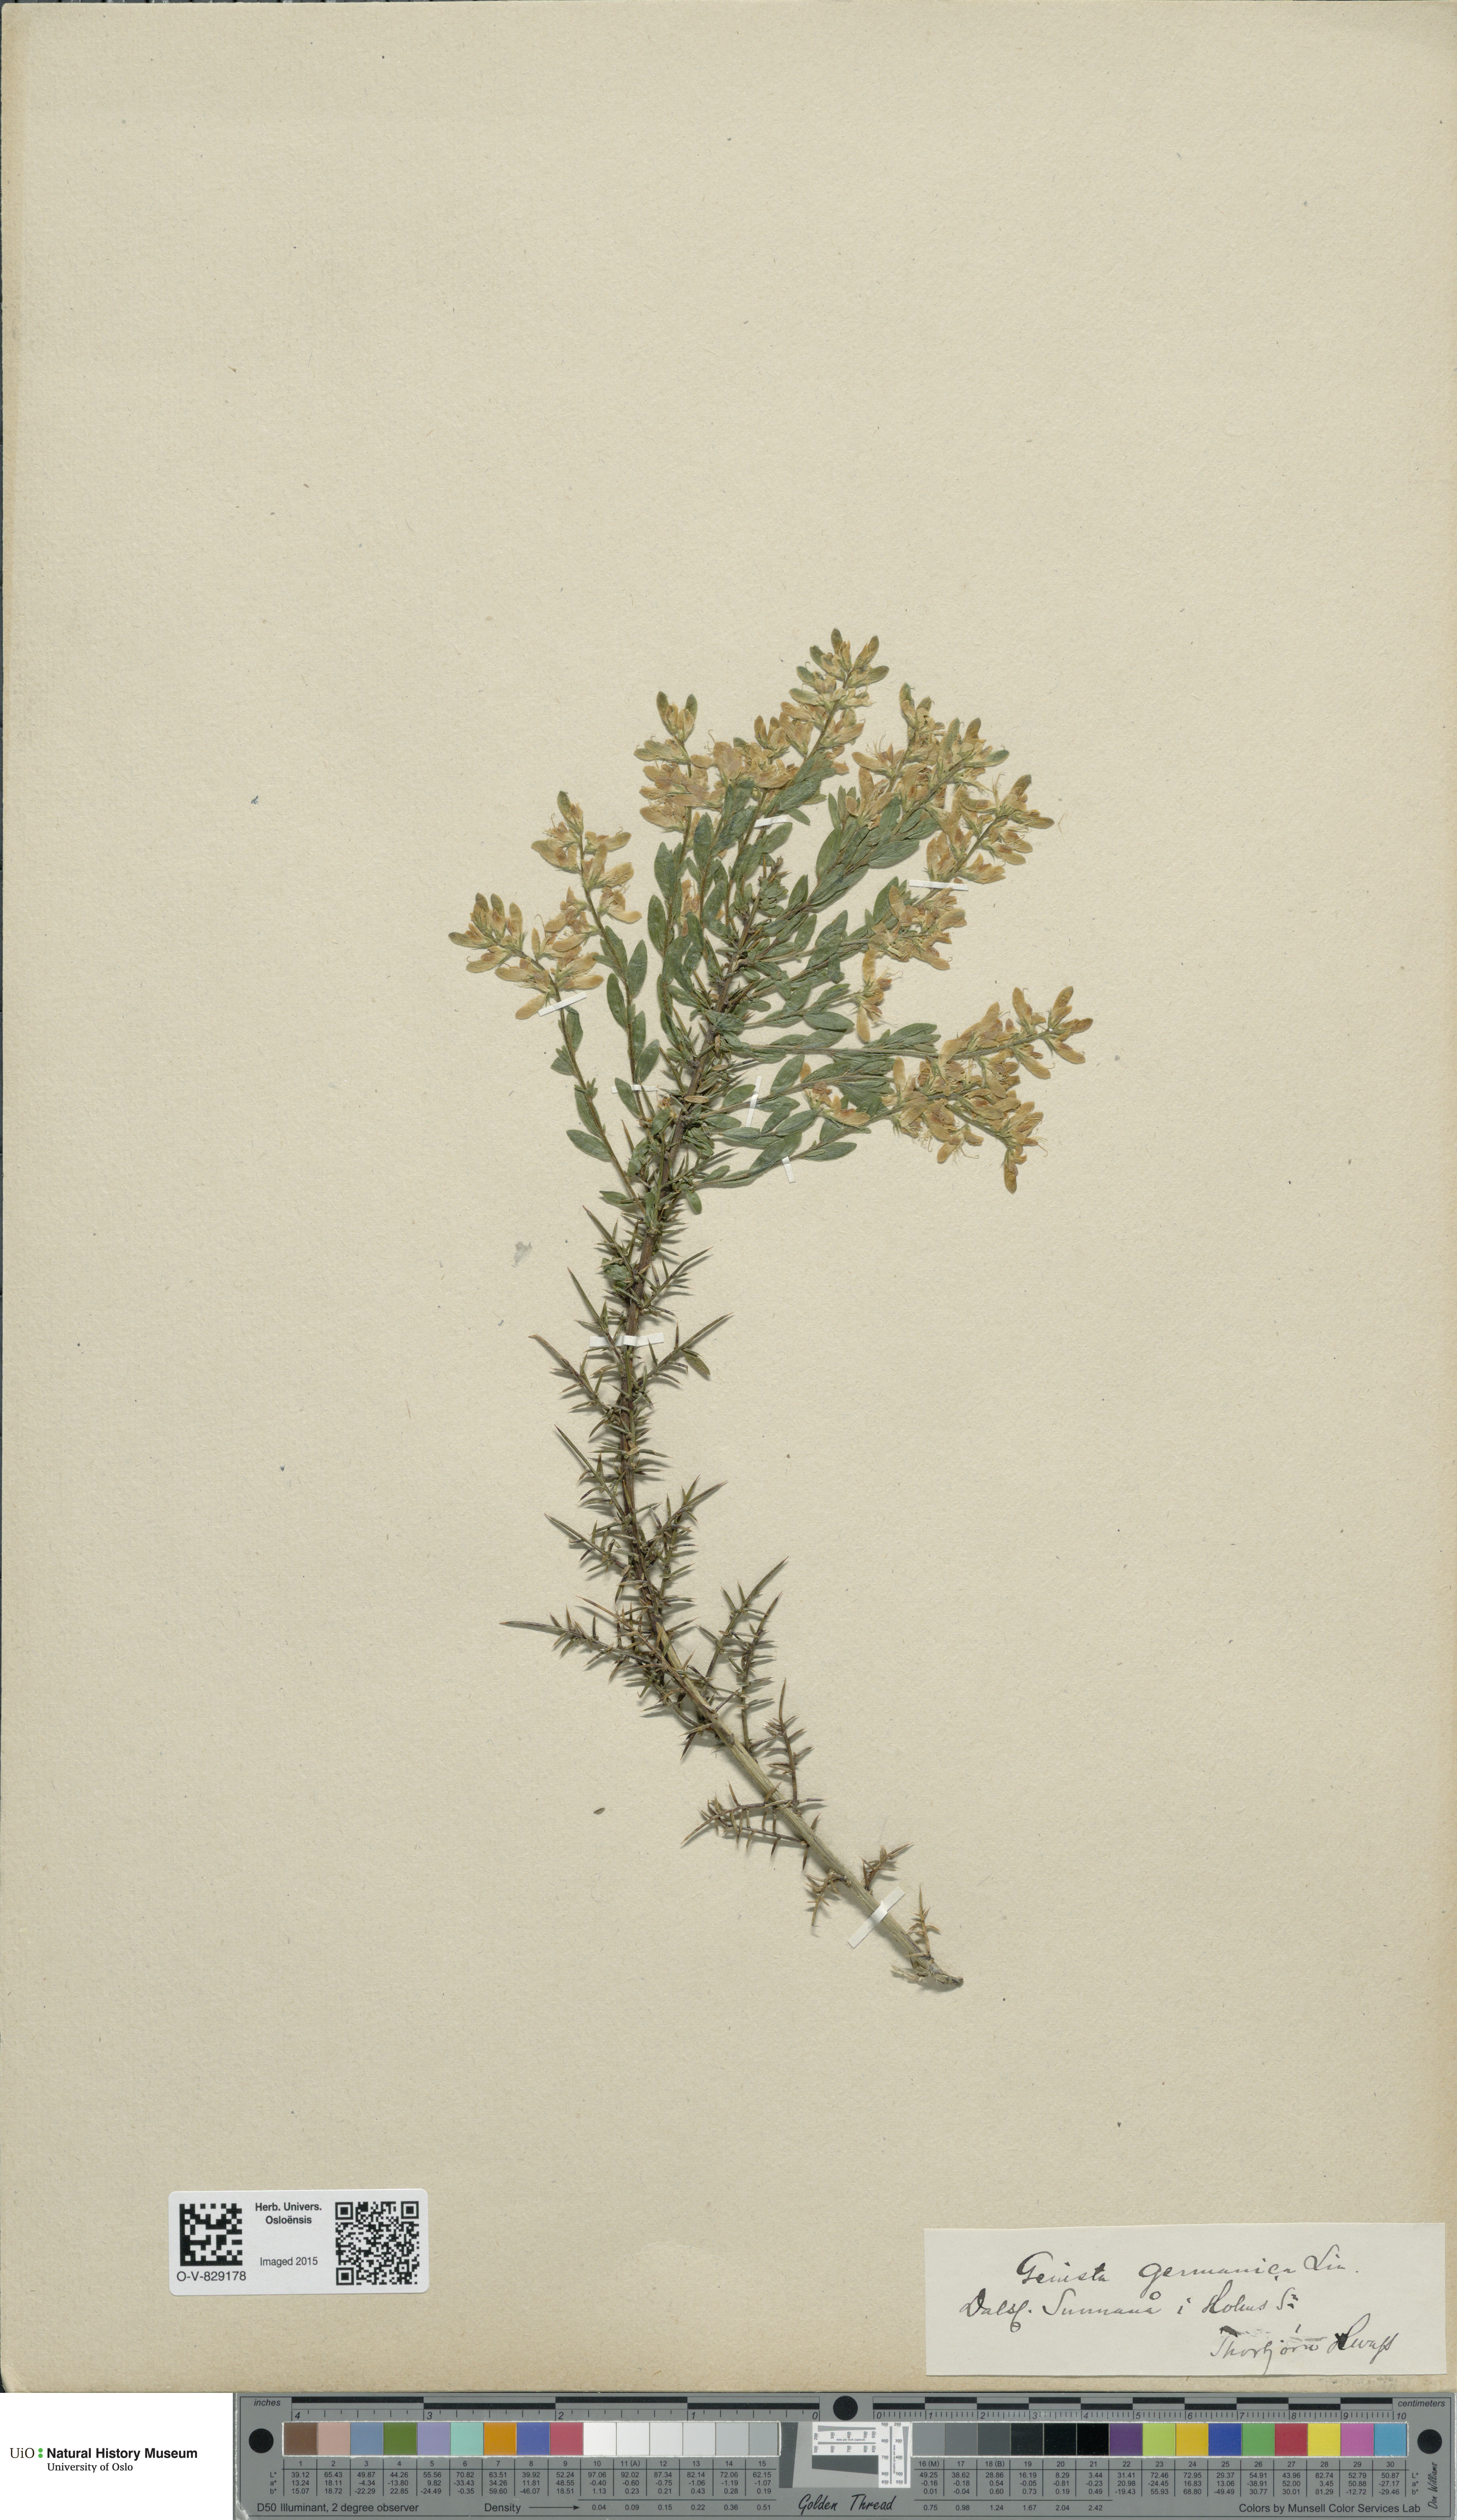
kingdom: Plantae
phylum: Tracheophyta
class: Magnoliopsida
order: Fabales
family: Fabaceae
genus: Genista
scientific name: Genista germanica
